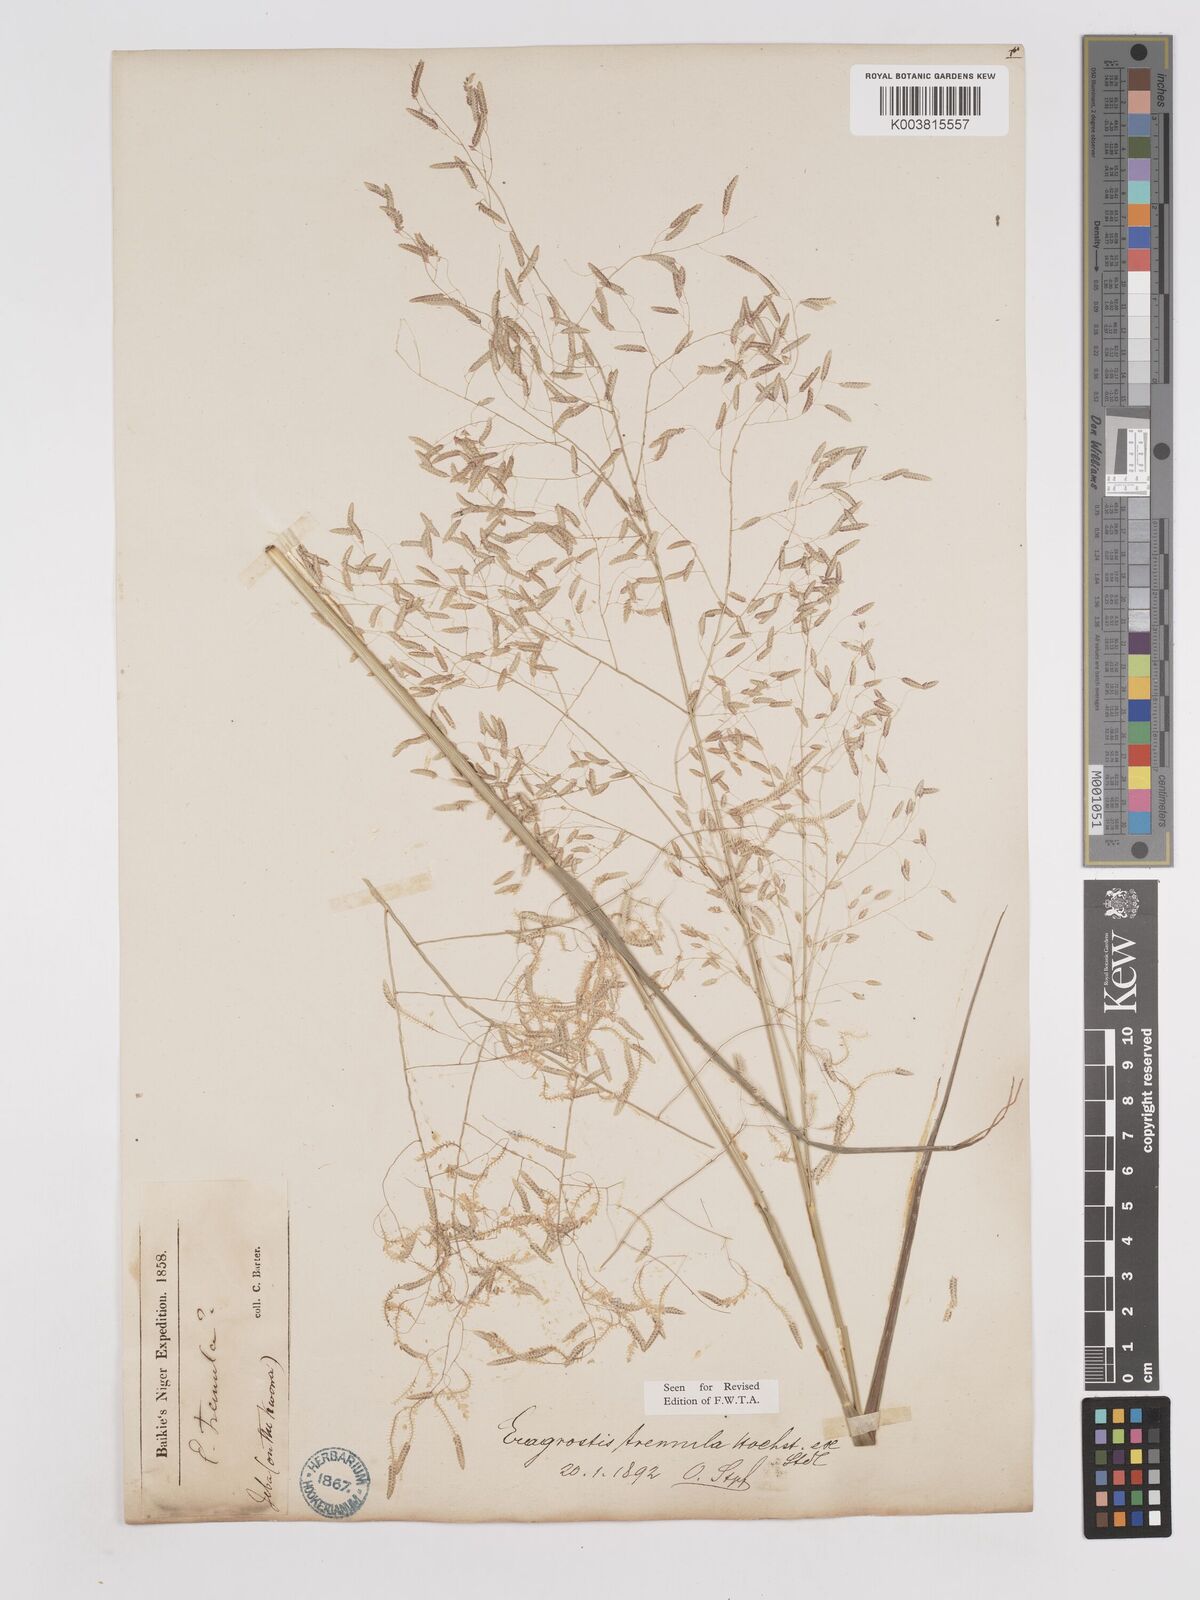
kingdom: Plantae
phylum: Tracheophyta
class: Liliopsida
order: Poales
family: Poaceae
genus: Eragrostis
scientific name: Eragrostis tremula
